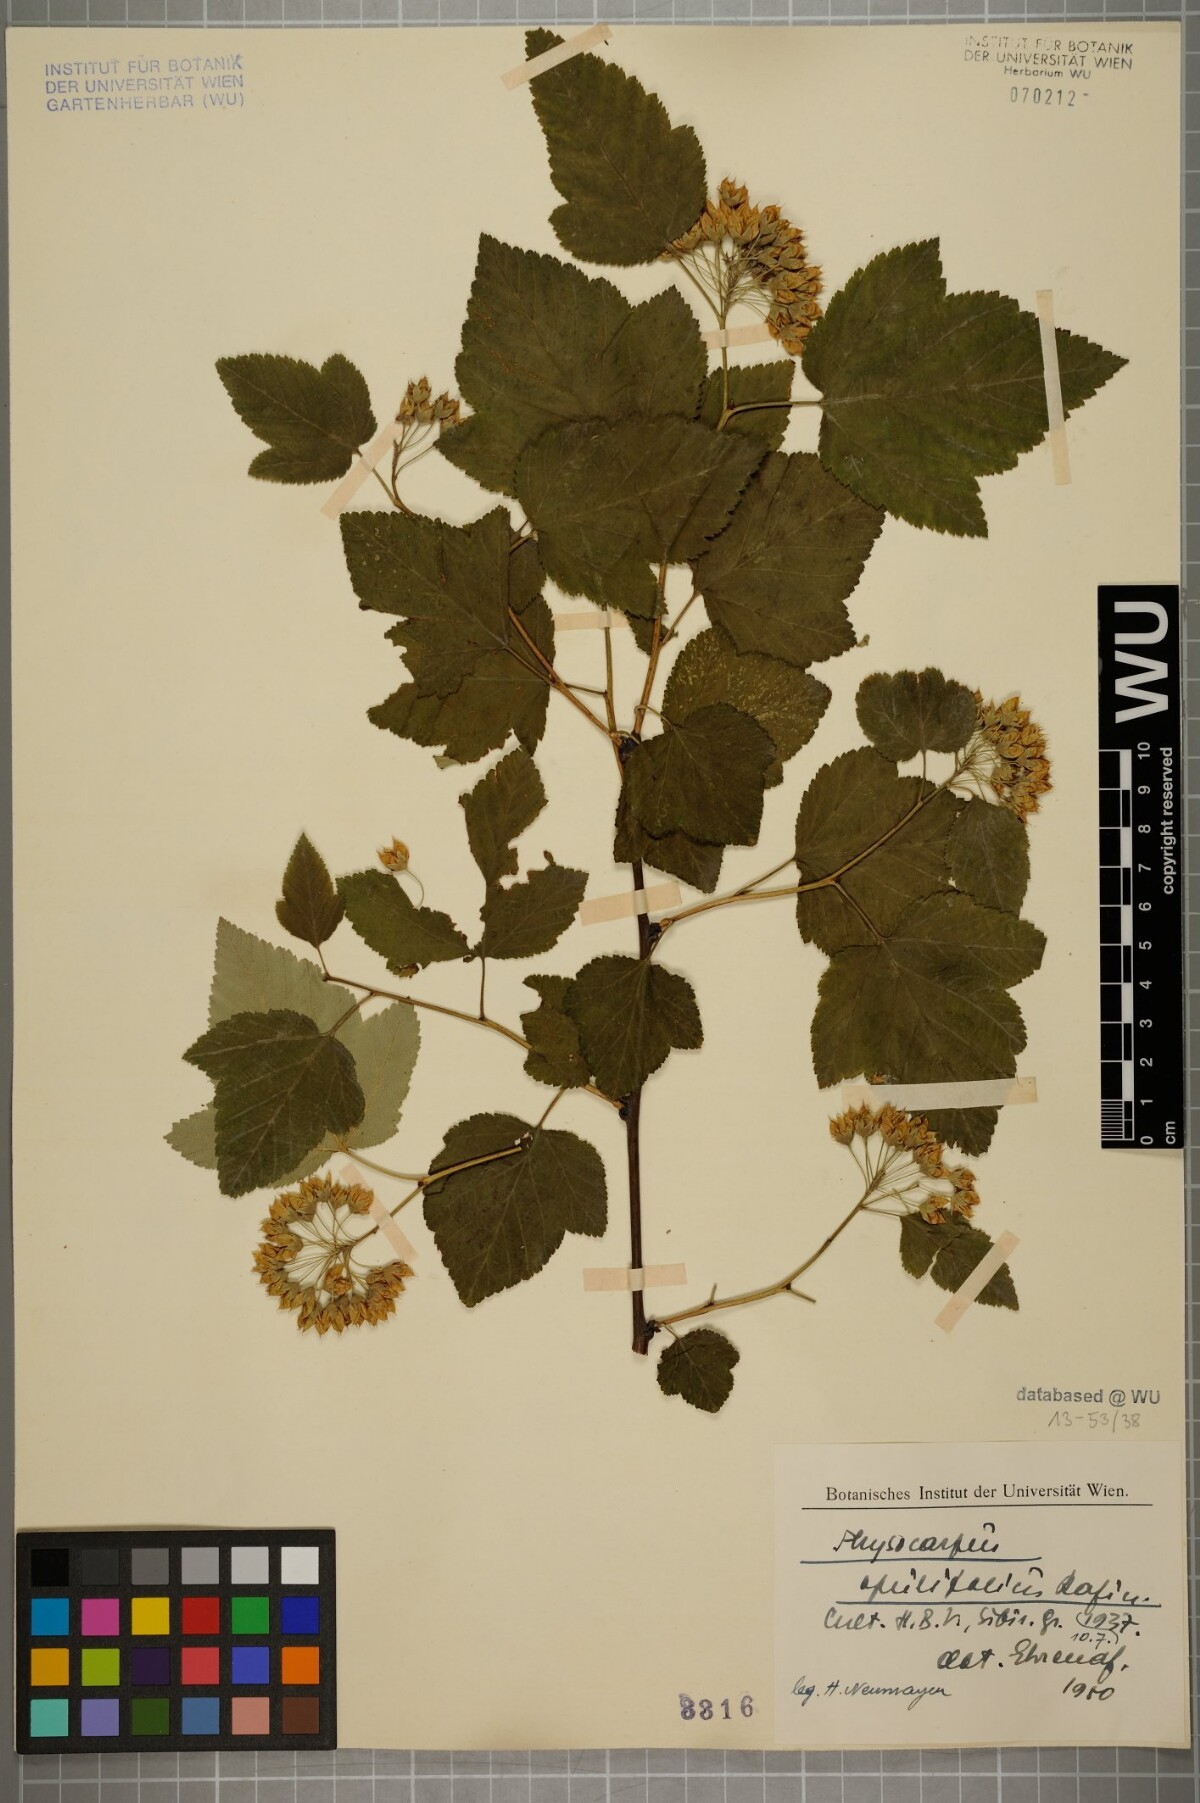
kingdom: Plantae
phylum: Tracheophyta
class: Magnoliopsida
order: Rosales
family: Rosaceae
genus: Physocarpus
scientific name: Physocarpus opulifolius
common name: Ninebark
